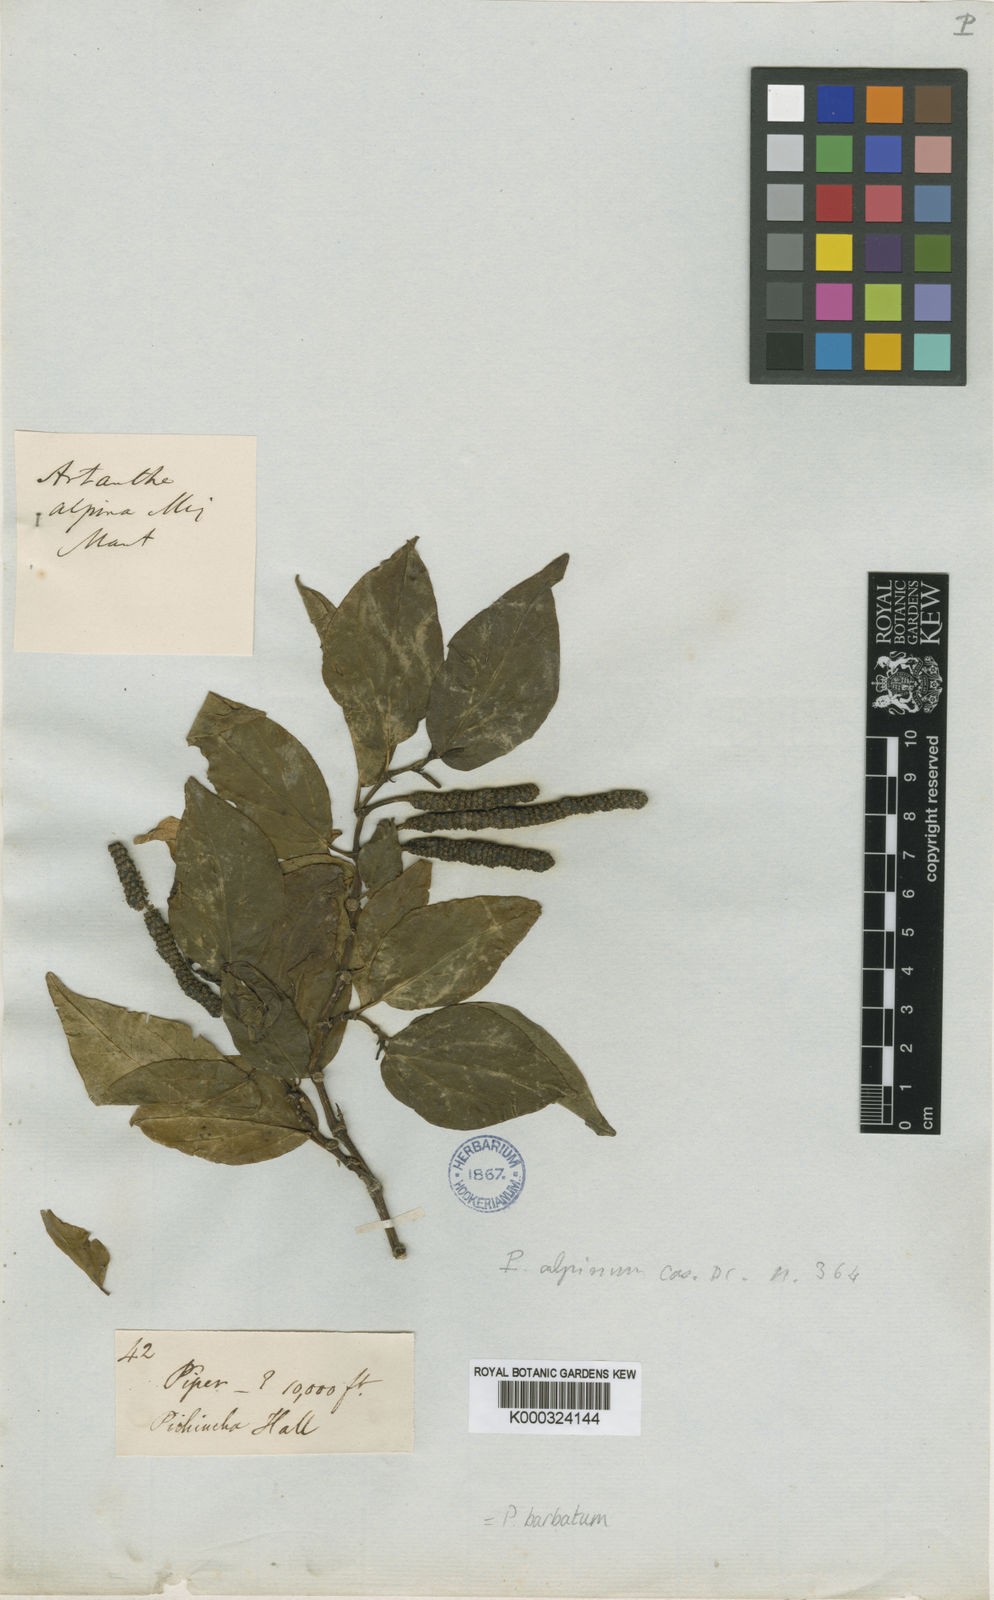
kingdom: Plantae
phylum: Tracheophyta
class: Magnoliopsida
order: Piperales
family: Piperaceae
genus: Piper
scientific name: Piper barbatum
